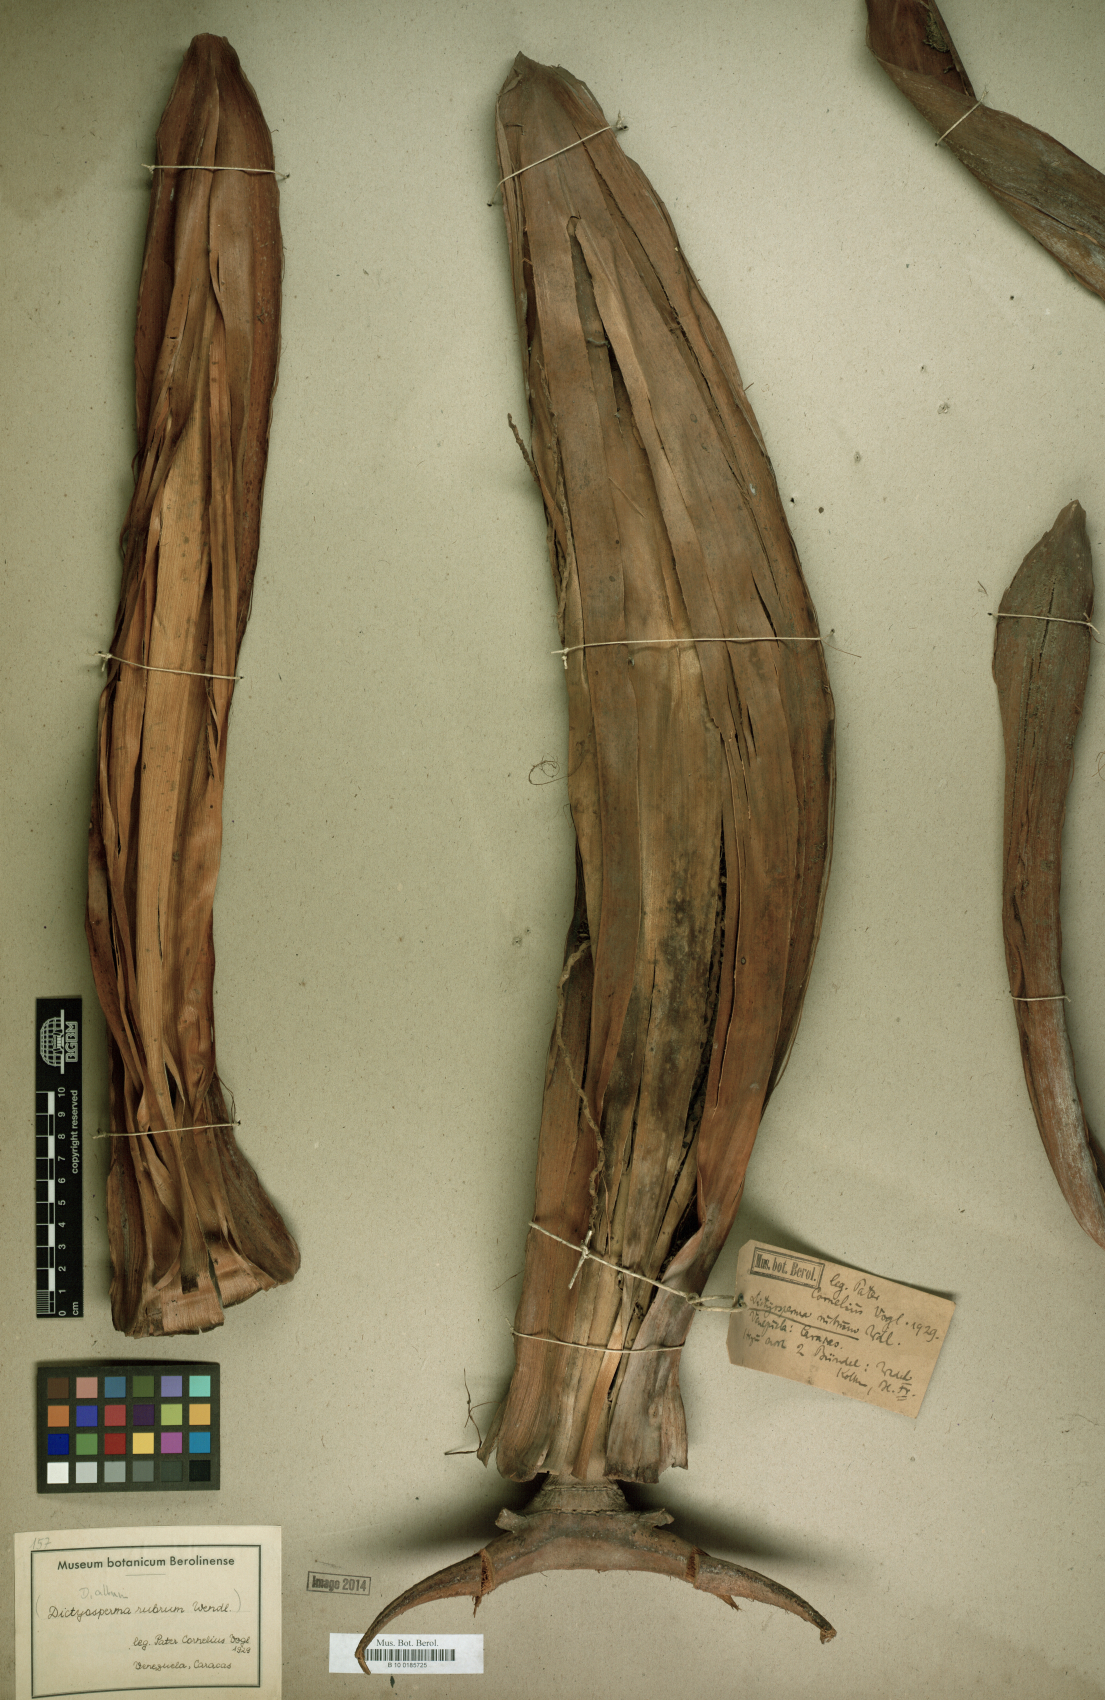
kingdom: Plantae
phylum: Tracheophyta
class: Liliopsida
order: Arecales
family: Arecaceae
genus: Dictyosperma
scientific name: Dictyosperma album
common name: Common princess palm
